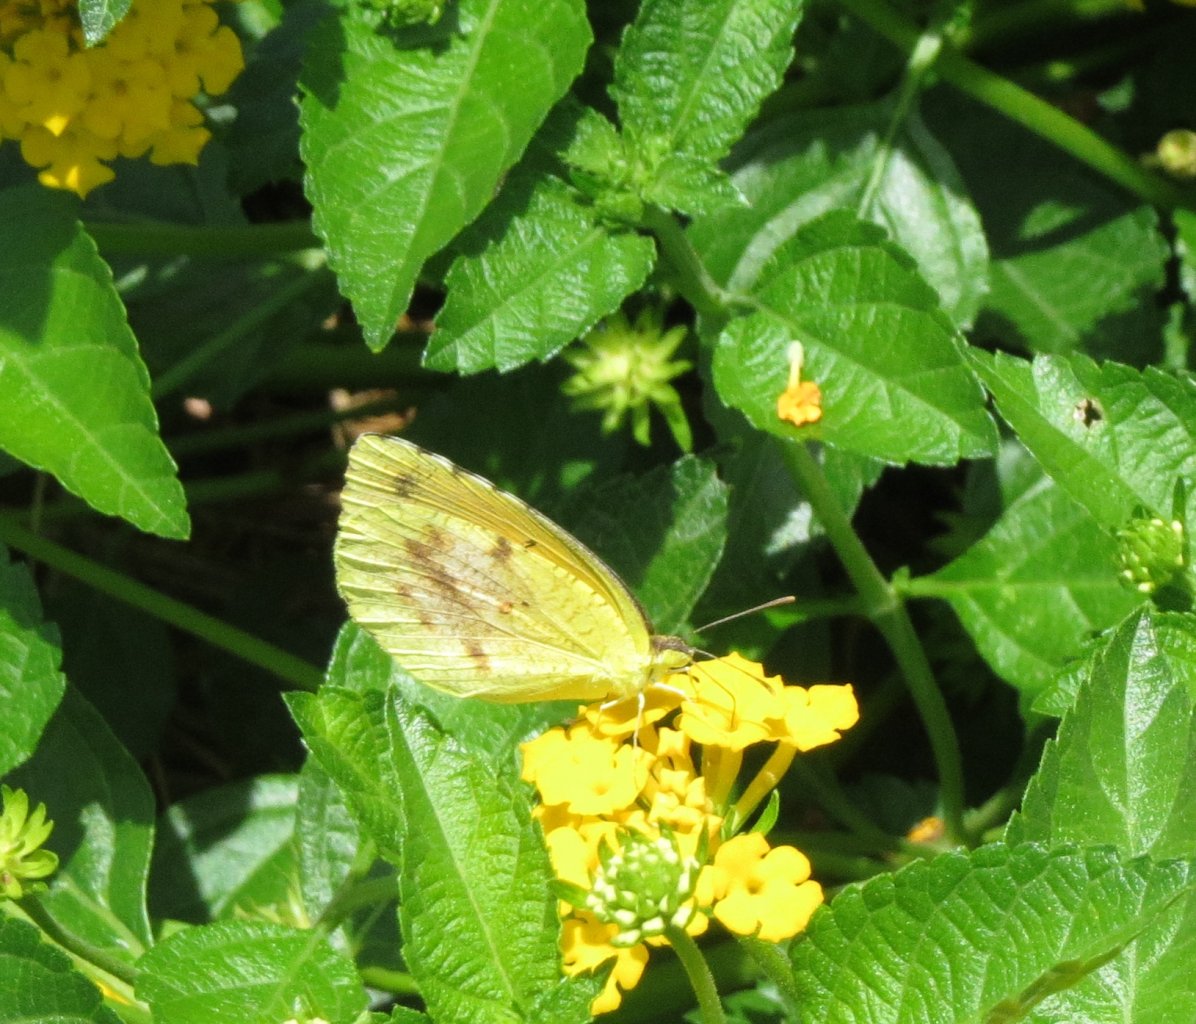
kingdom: Animalia
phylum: Arthropoda
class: Insecta
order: Lepidoptera
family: Pieridae
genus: Abaeis
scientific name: Abaeis nicippe
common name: Sleepy Orange
